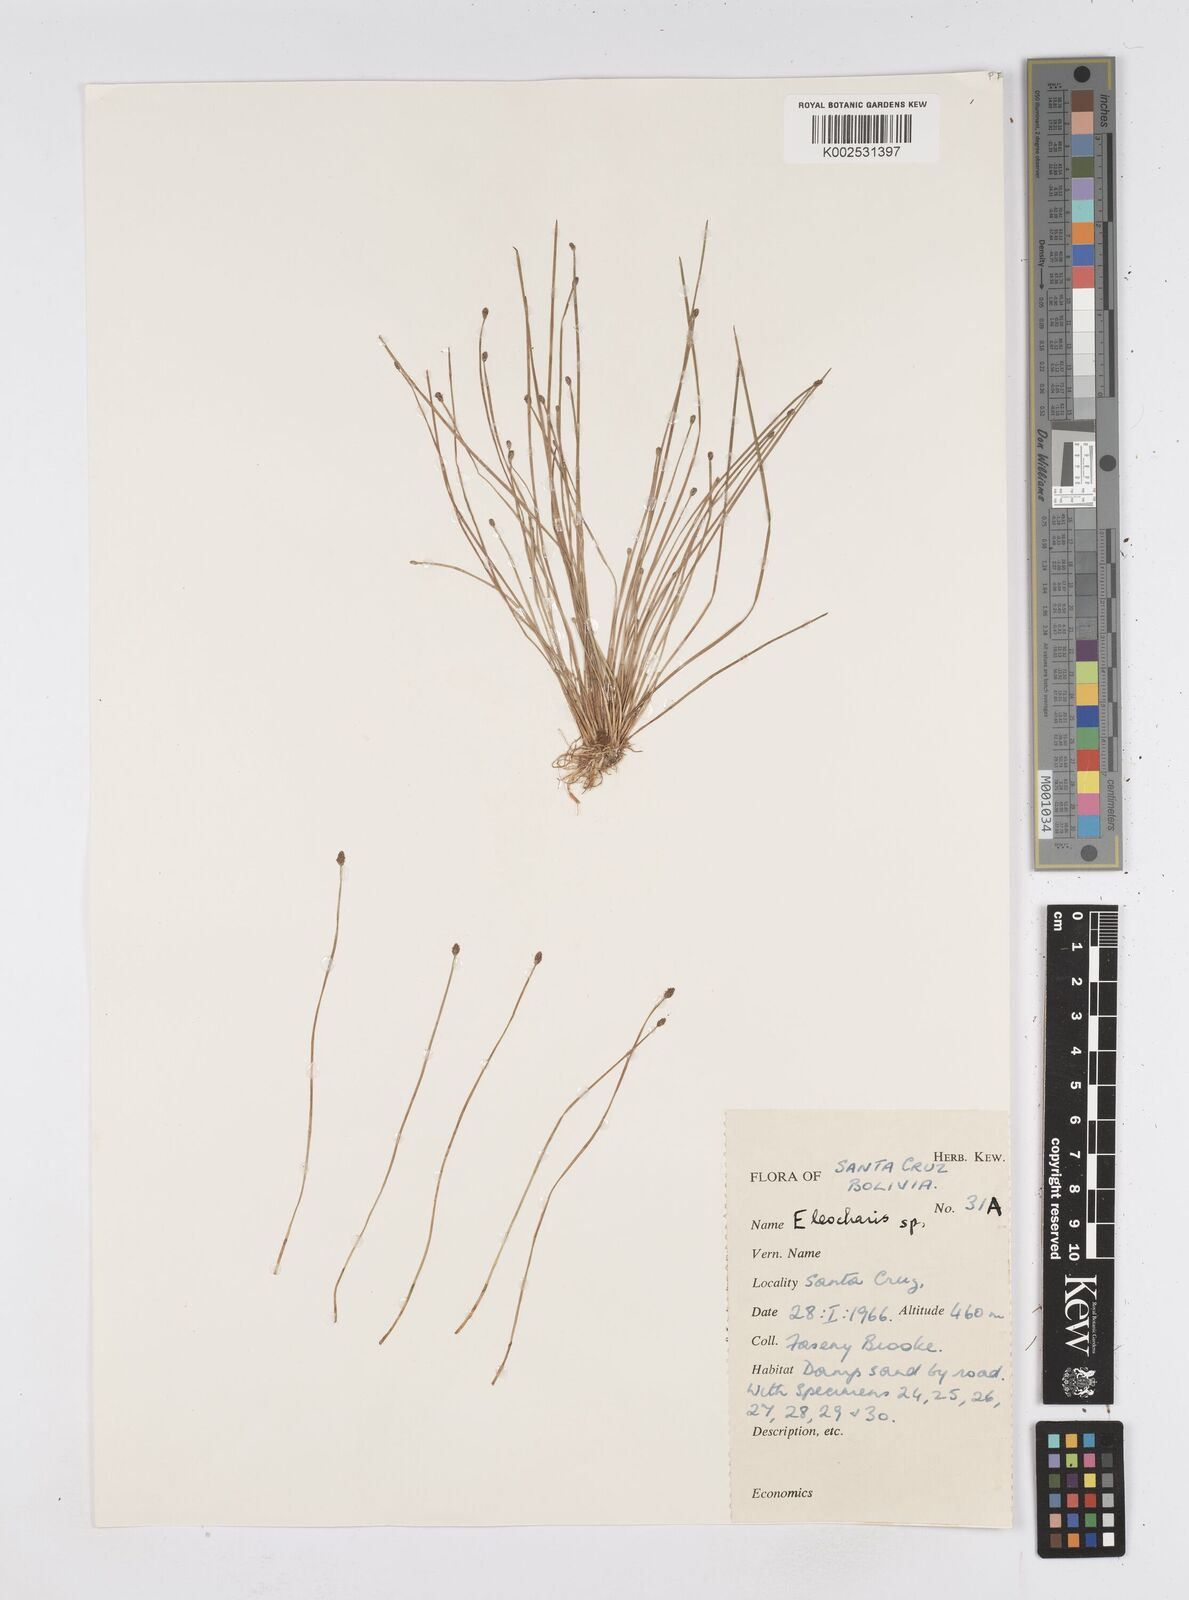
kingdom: Plantae
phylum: Tracheophyta
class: Liliopsida
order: Poales
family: Cyperaceae
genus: Eleocharis
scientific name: Eleocharis
